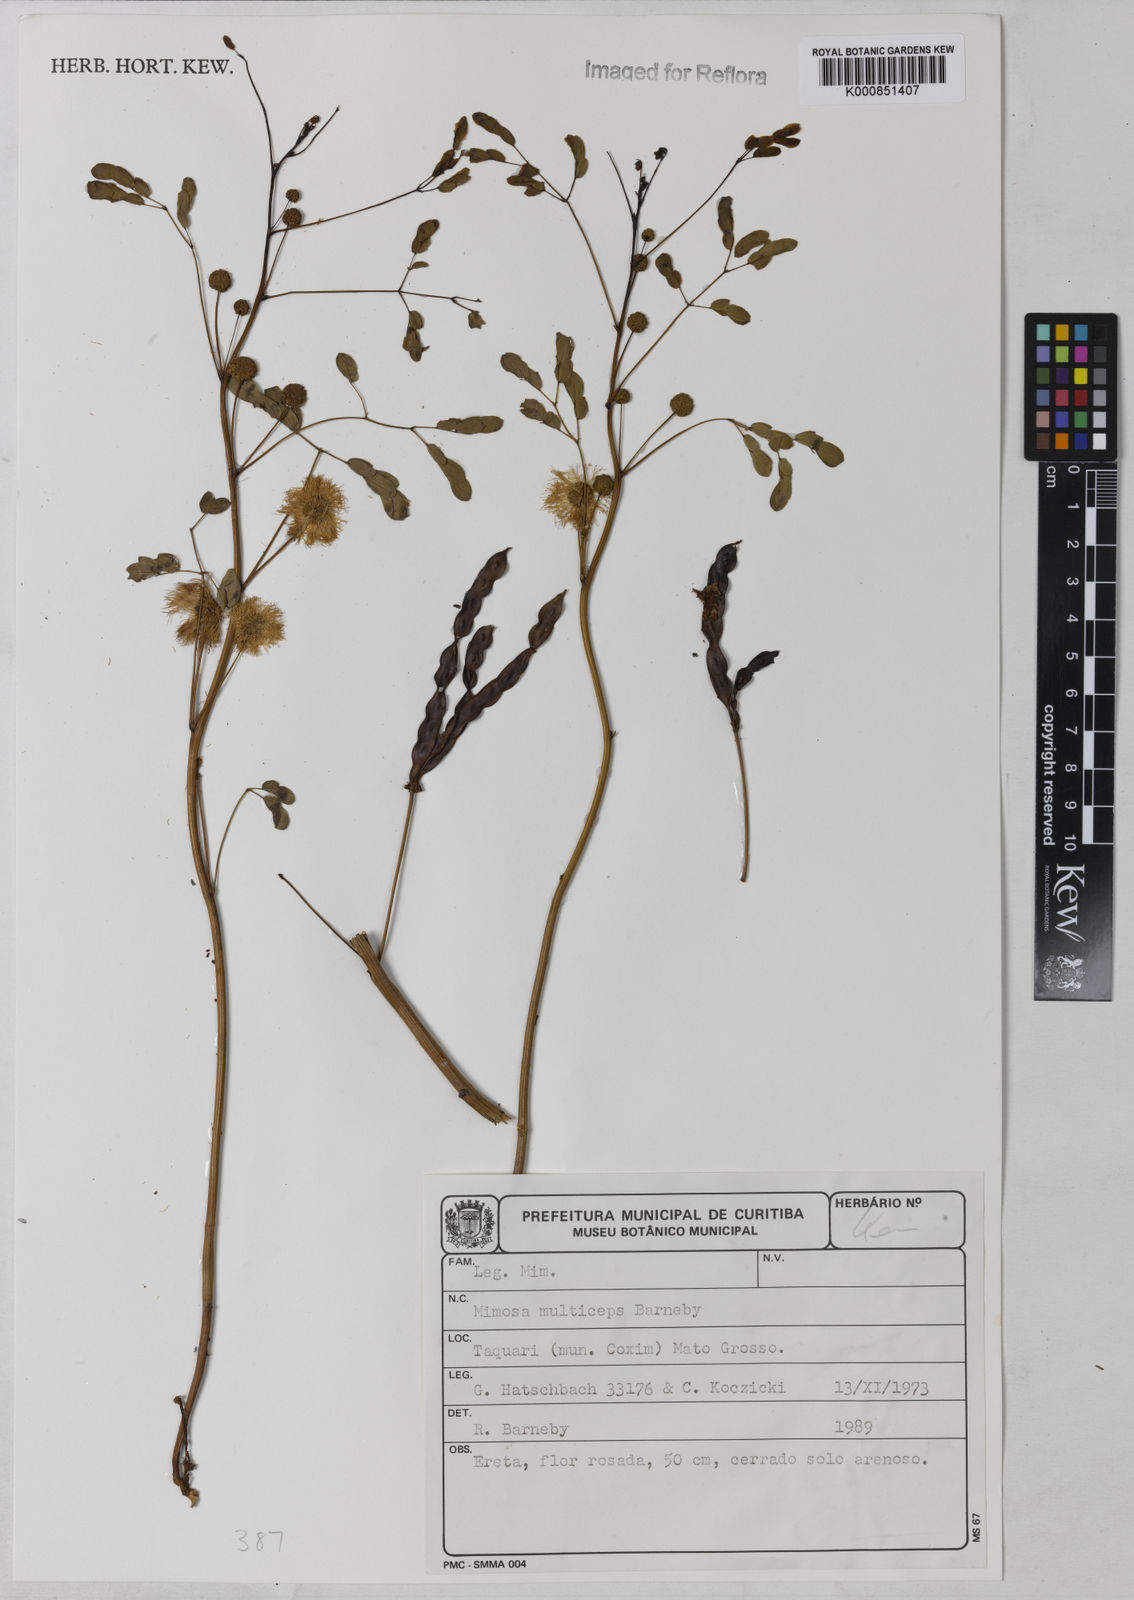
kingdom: Plantae
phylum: Tracheophyta
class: Magnoliopsida
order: Fabales
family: Fabaceae
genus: Mimosa
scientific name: Mimosa multiceps
